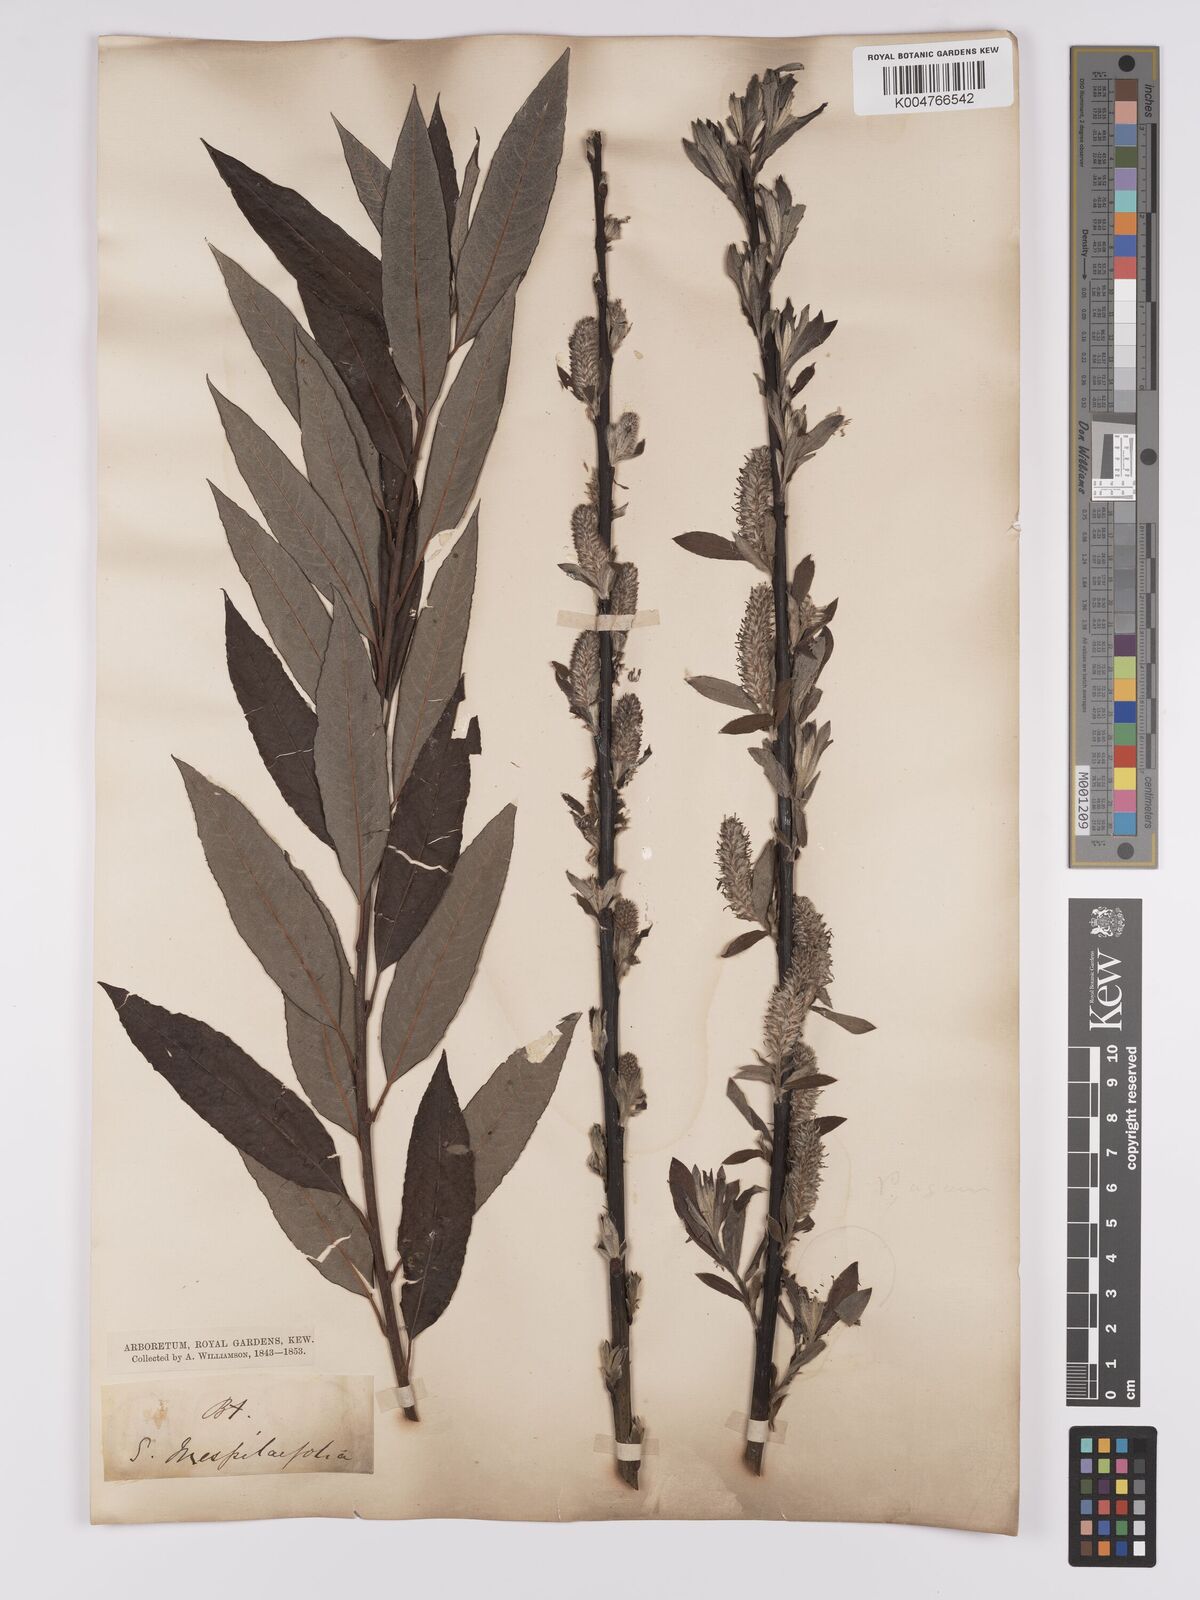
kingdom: Plantae
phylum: Tracheophyta
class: Magnoliopsida
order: Malpighiales
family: Salicaceae
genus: Salix
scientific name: Salix caprea
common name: Goat willow
